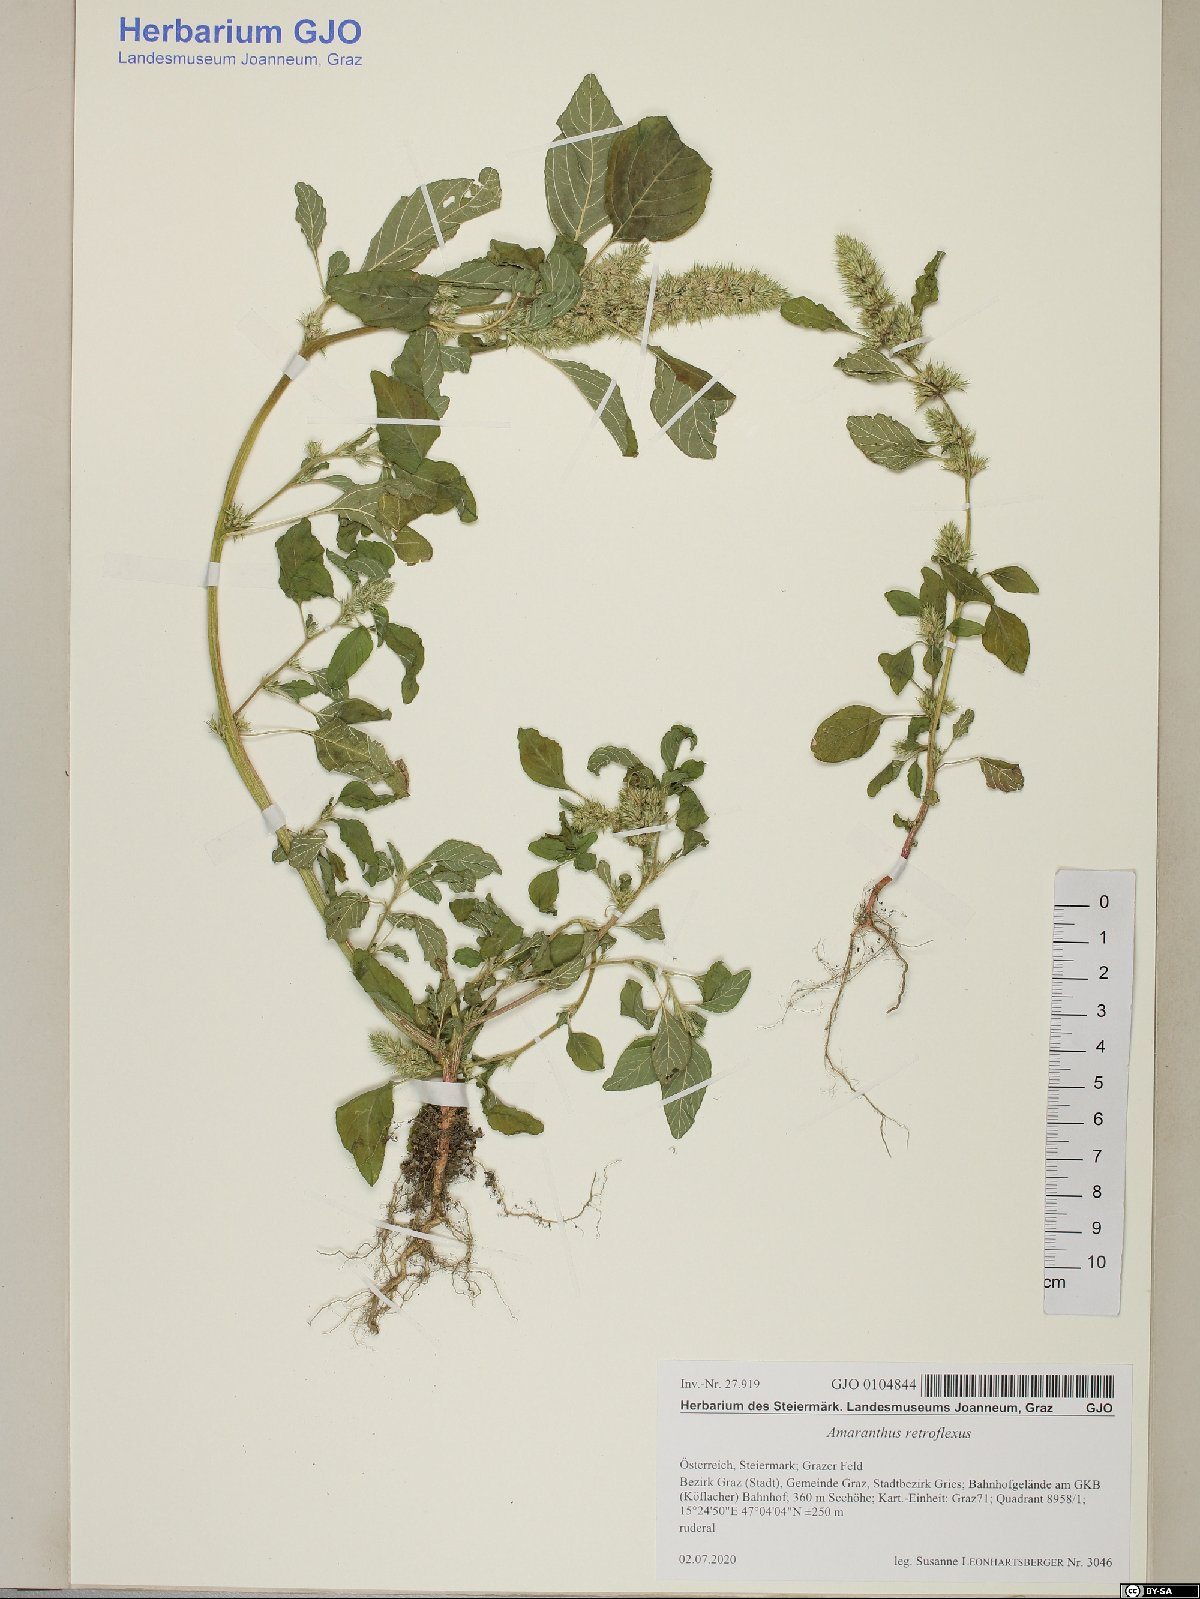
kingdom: Plantae
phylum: Tracheophyta
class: Magnoliopsida
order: Caryophyllales
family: Amaranthaceae
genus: Amaranthus
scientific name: Amaranthus retroflexus
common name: Redroot amaranth
